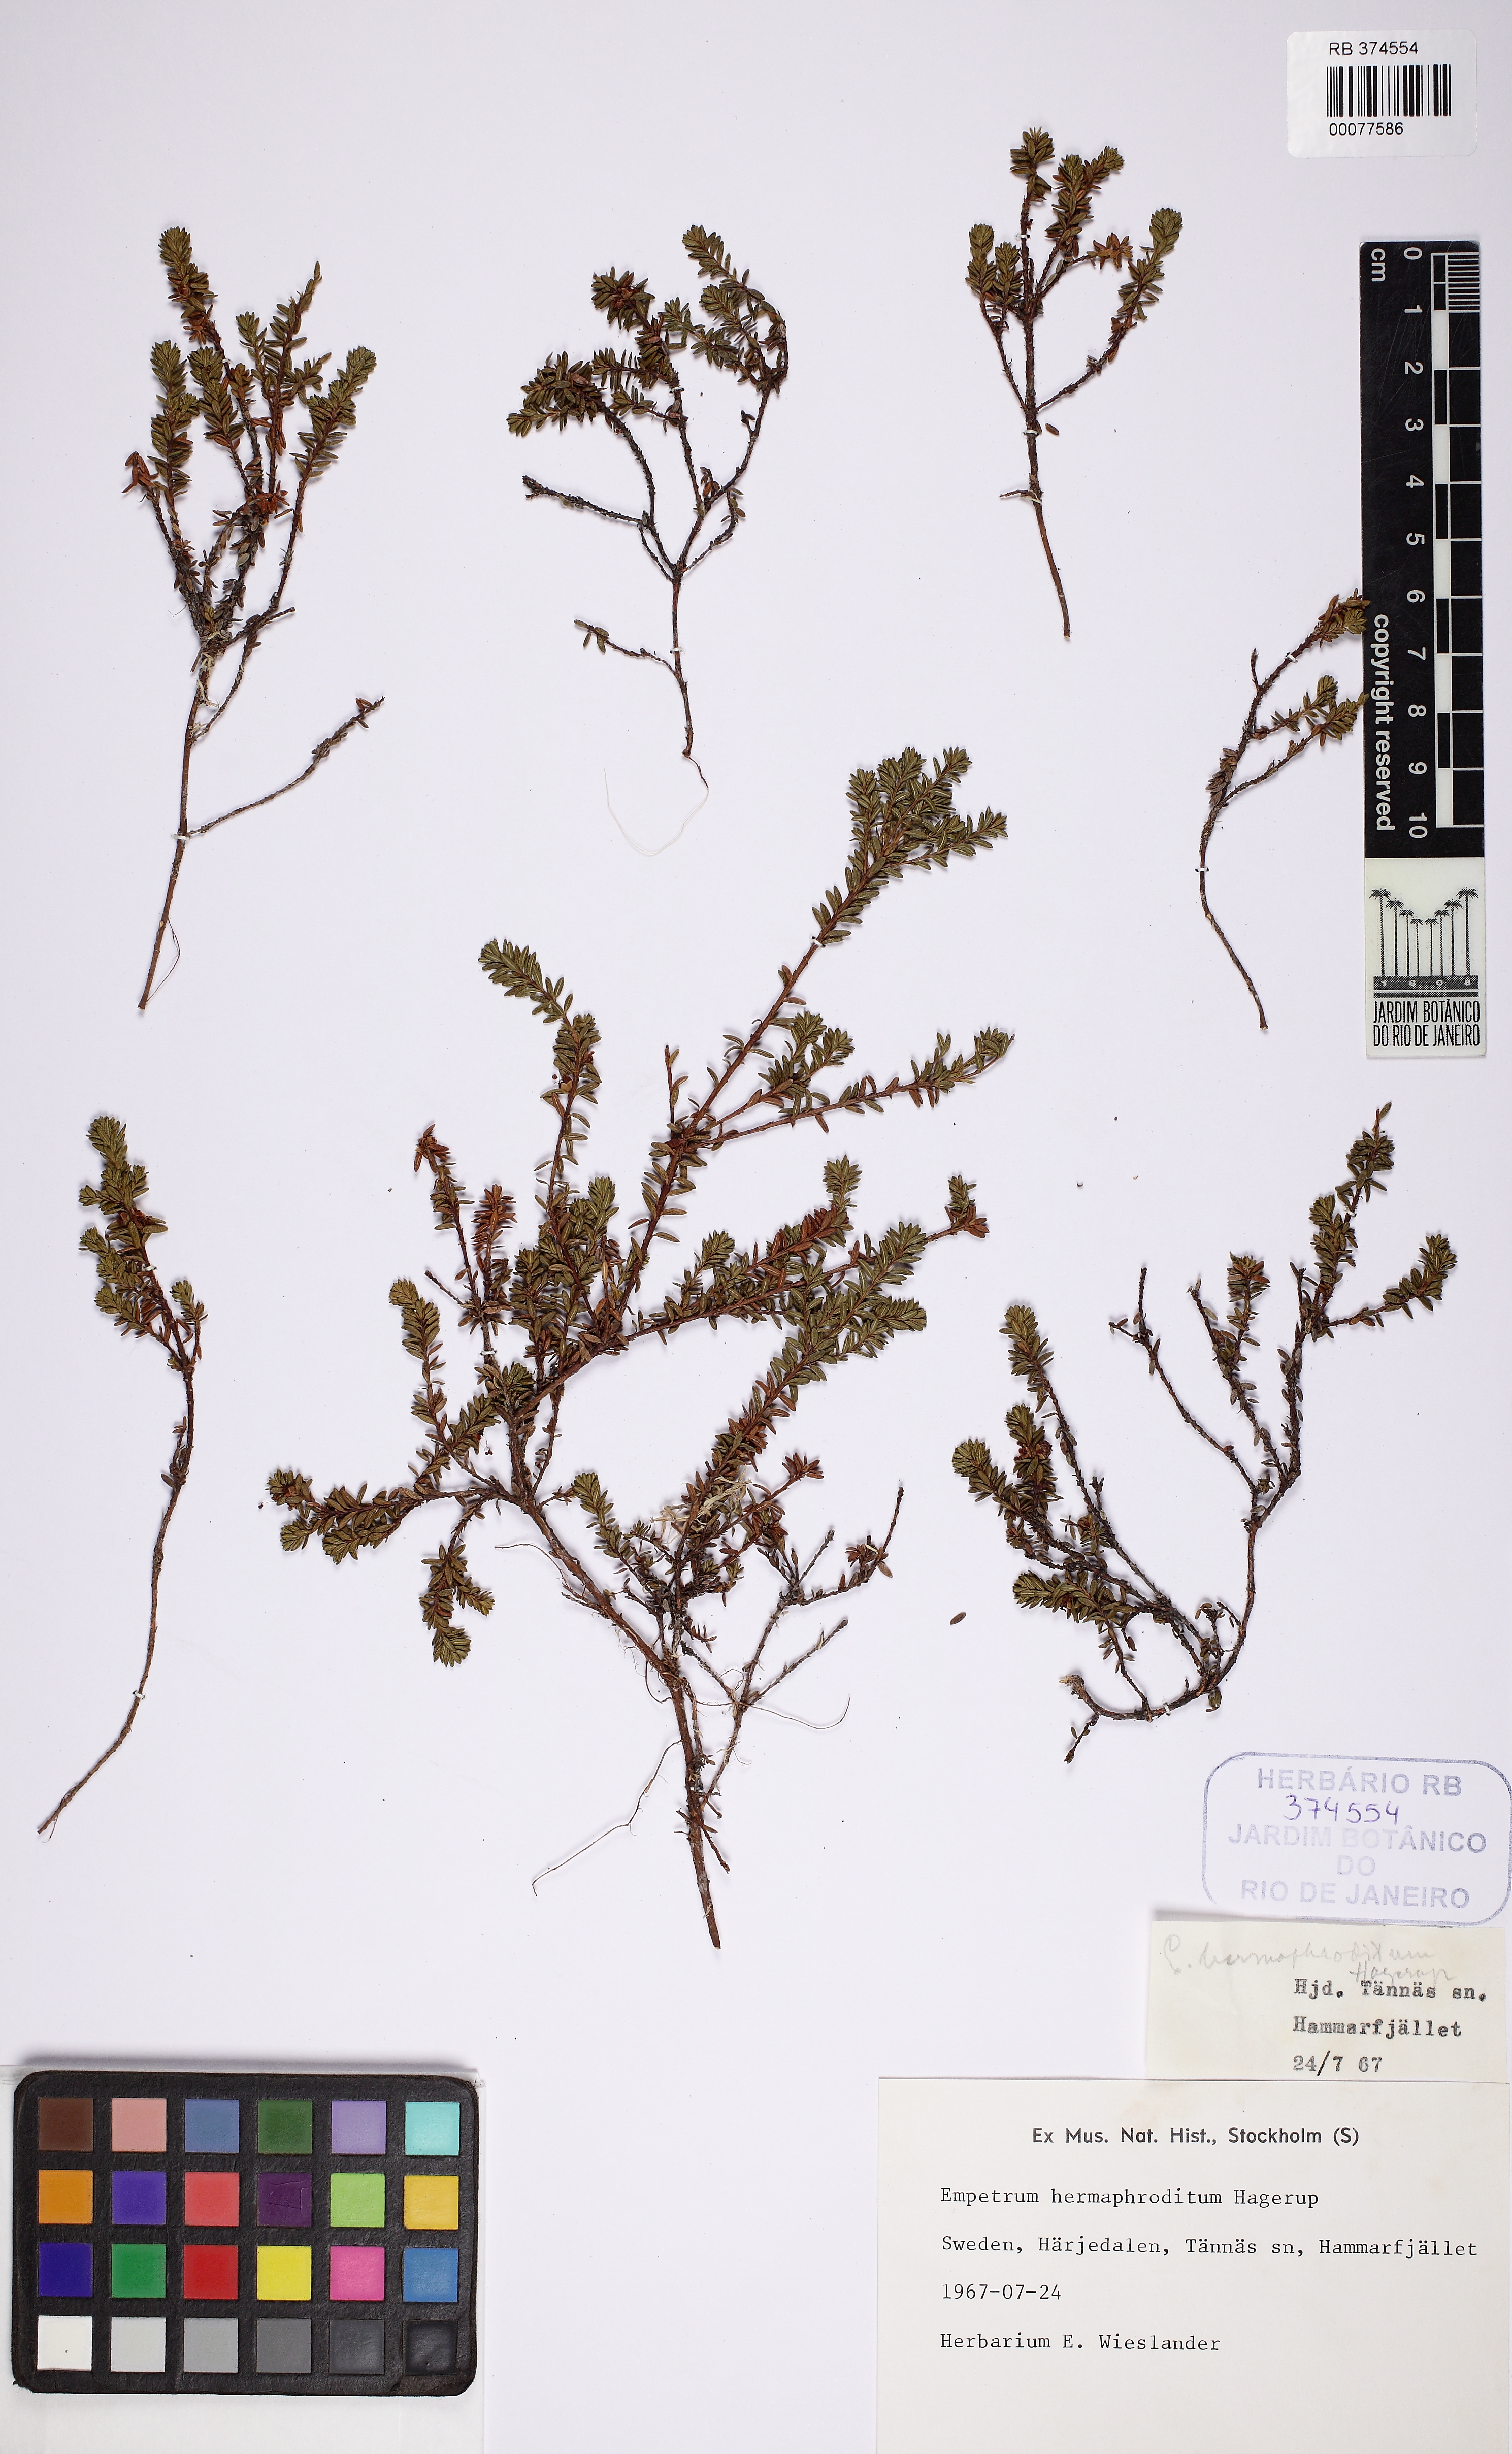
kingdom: Plantae
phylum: Tracheophyta
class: Magnoliopsida
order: Ericales
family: Ericaceae
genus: Empetrum
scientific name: Empetrum hermaphroditum
